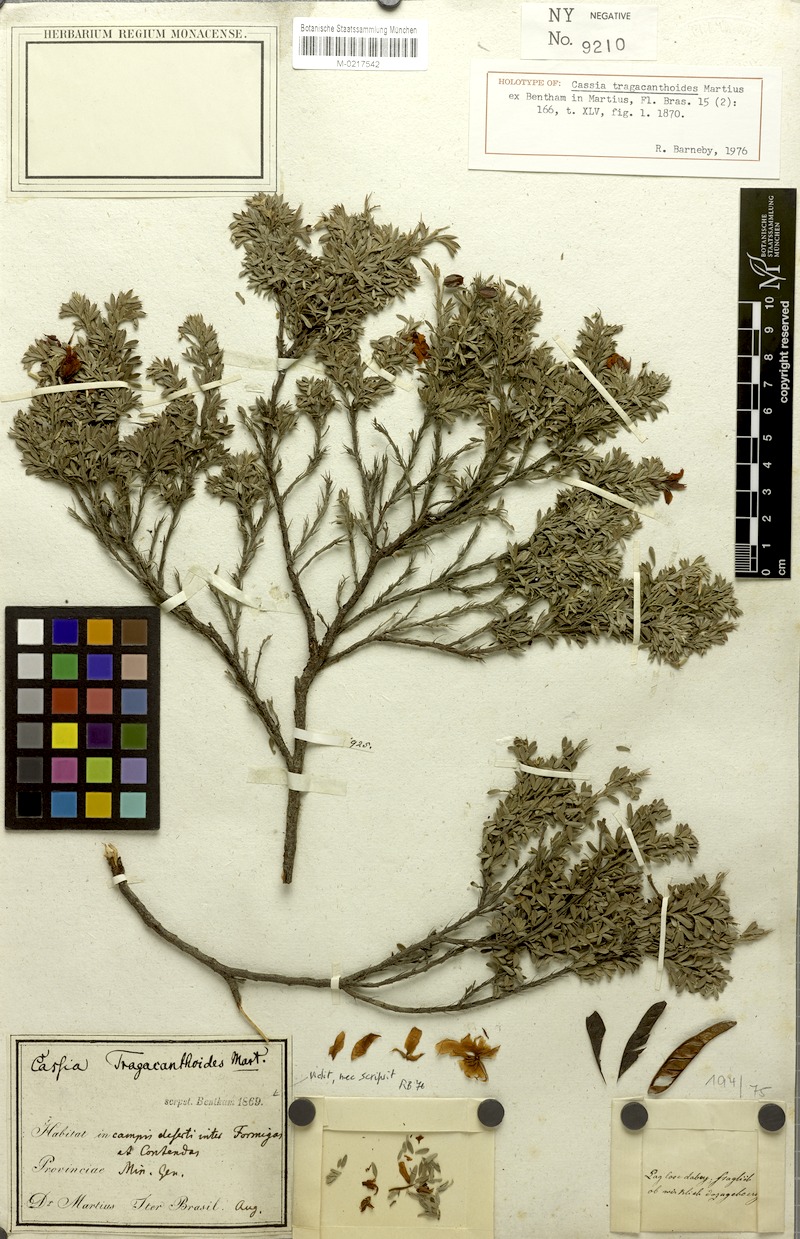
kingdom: Plantae
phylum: Tracheophyta
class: Magnoliopsida
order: Fabales
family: Fabaceae
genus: Chamaecrista
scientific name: Chamaecrista tragacanthoides
